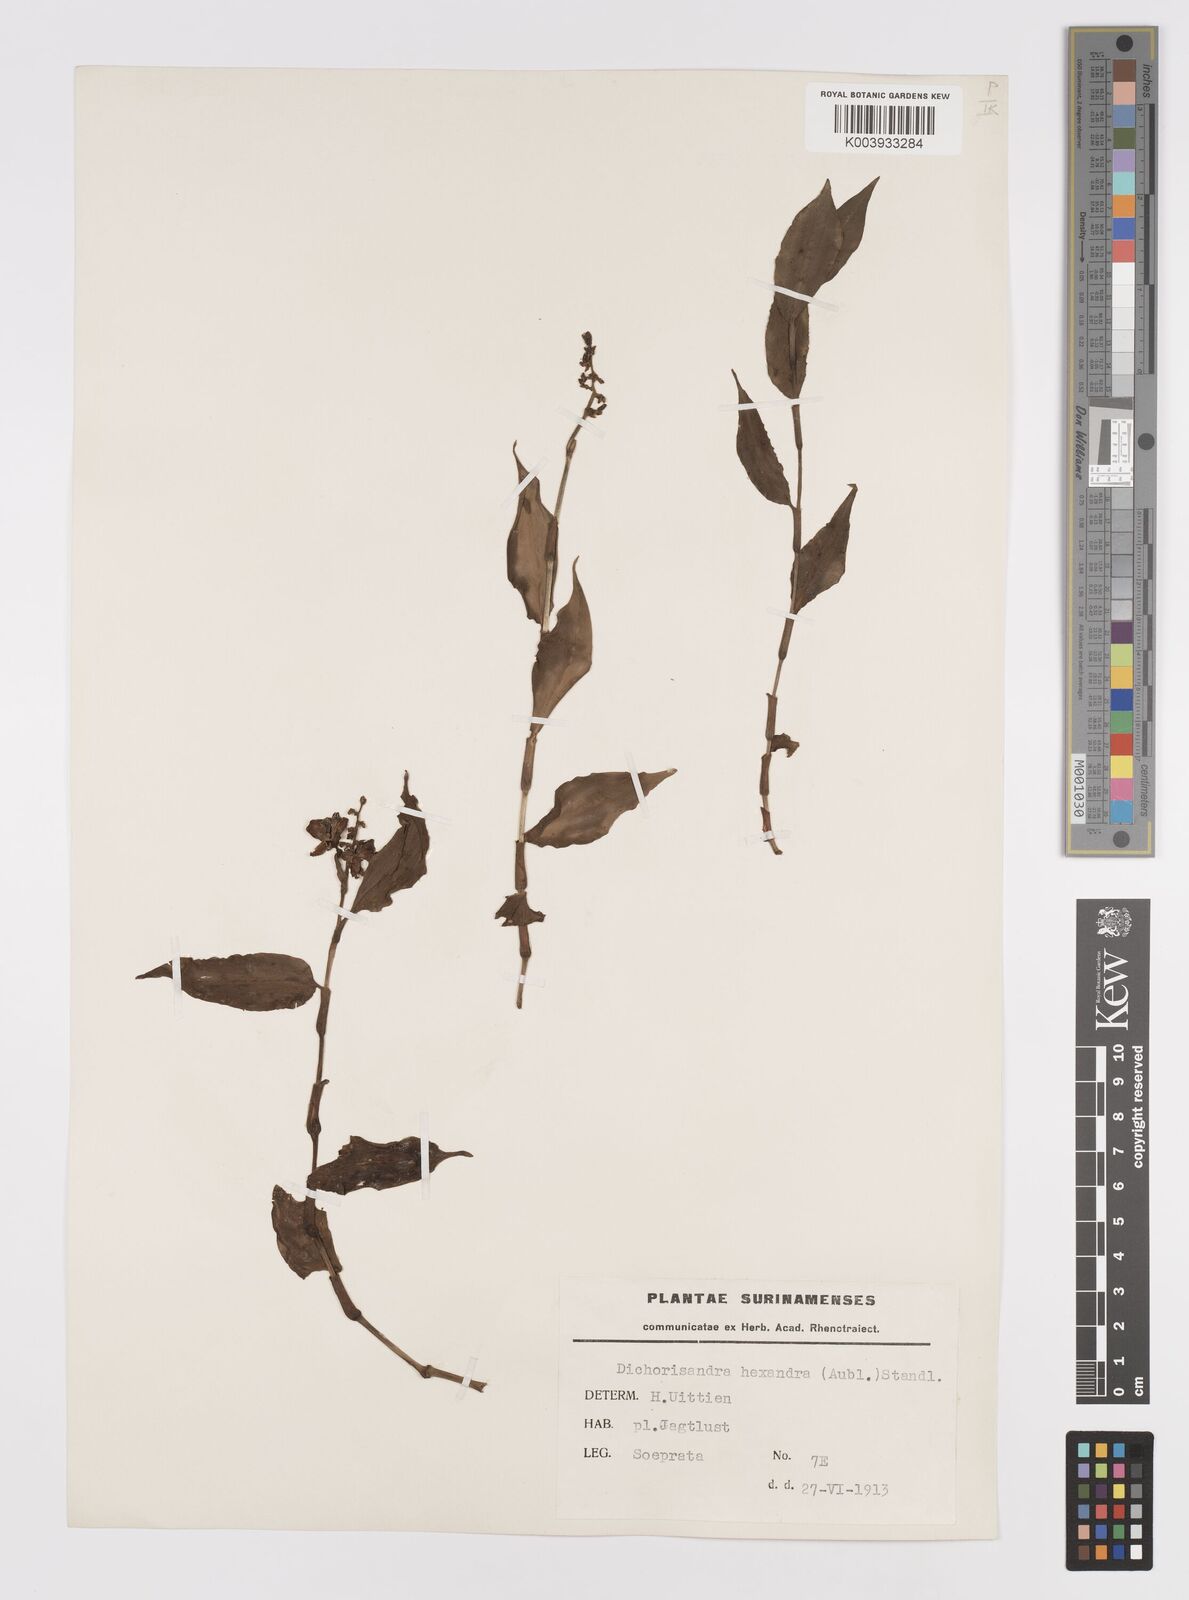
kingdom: Plantae
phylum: Tracheophyta
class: Liliopsida
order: Commelinales
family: Commelinaceae
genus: Dichorisandra
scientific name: Dichorisandra hexandra
